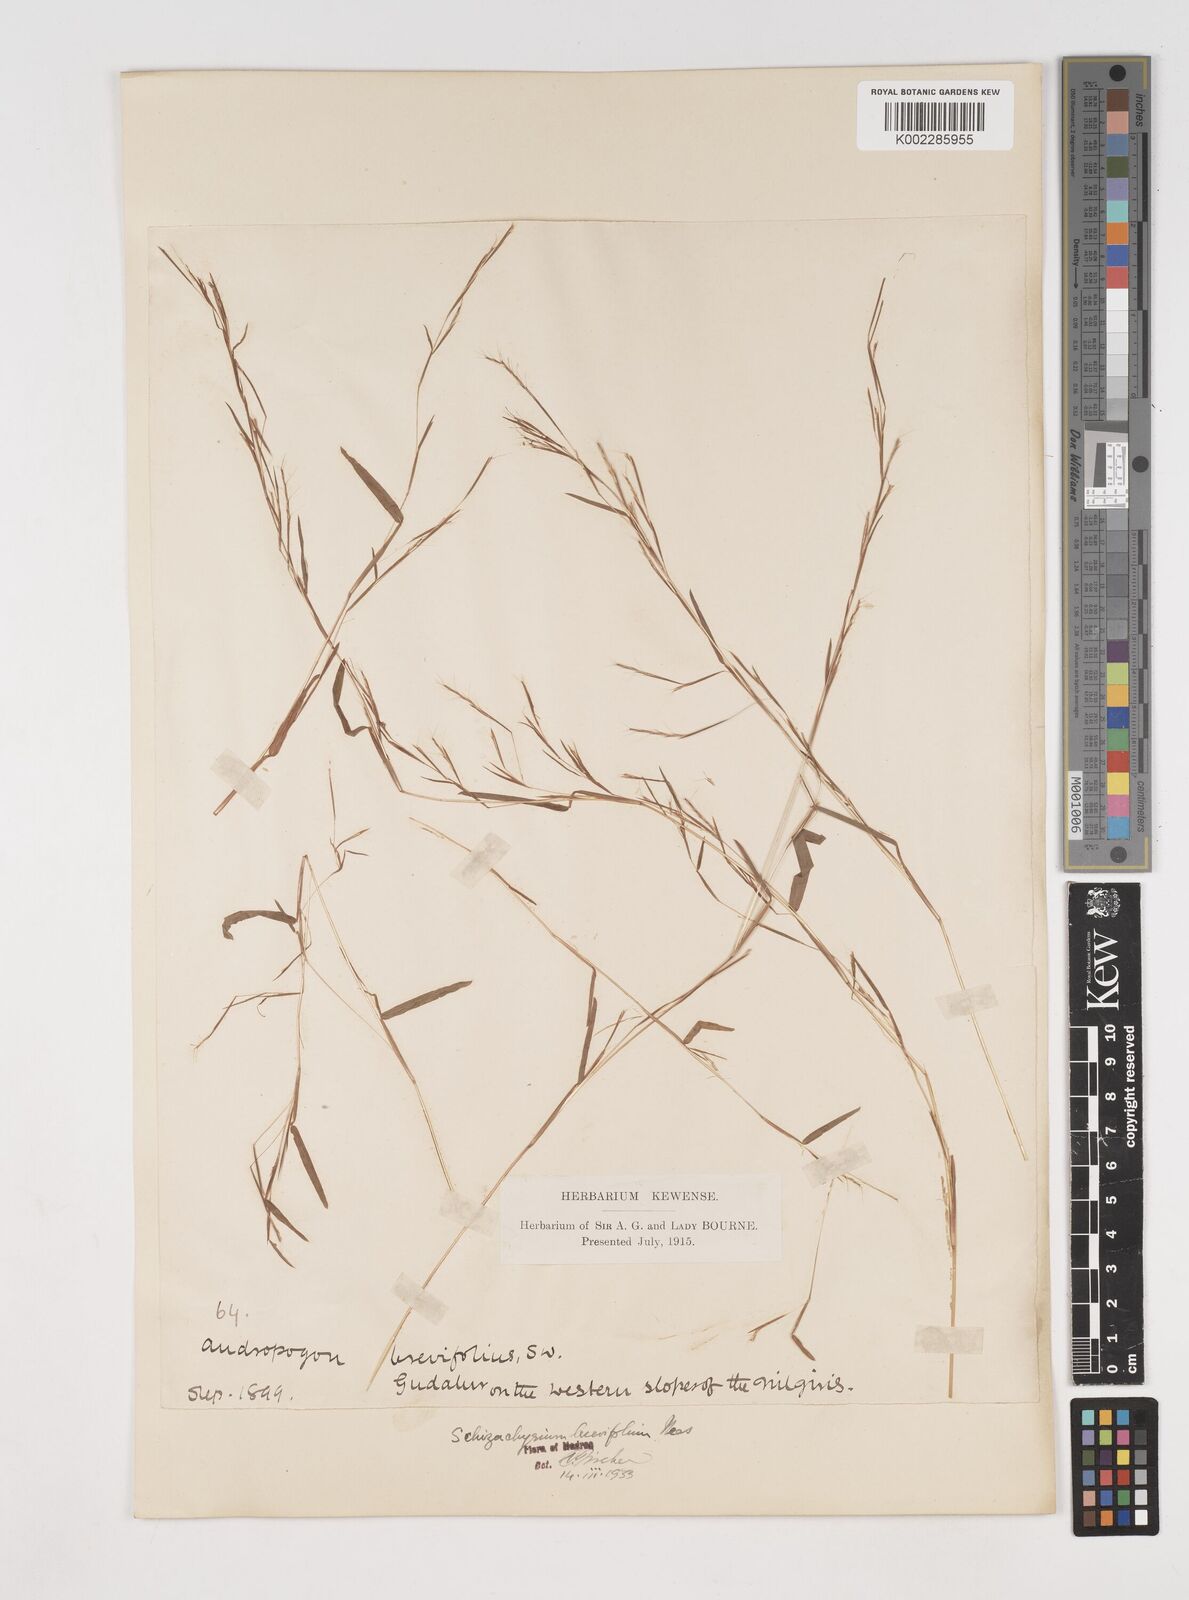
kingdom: Plantae
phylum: Tracheophyta
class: Liliopsida
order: Poales
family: Poaceae
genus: Schizachyrium
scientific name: Schizachyrium brevifolium
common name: Serillo dulce
